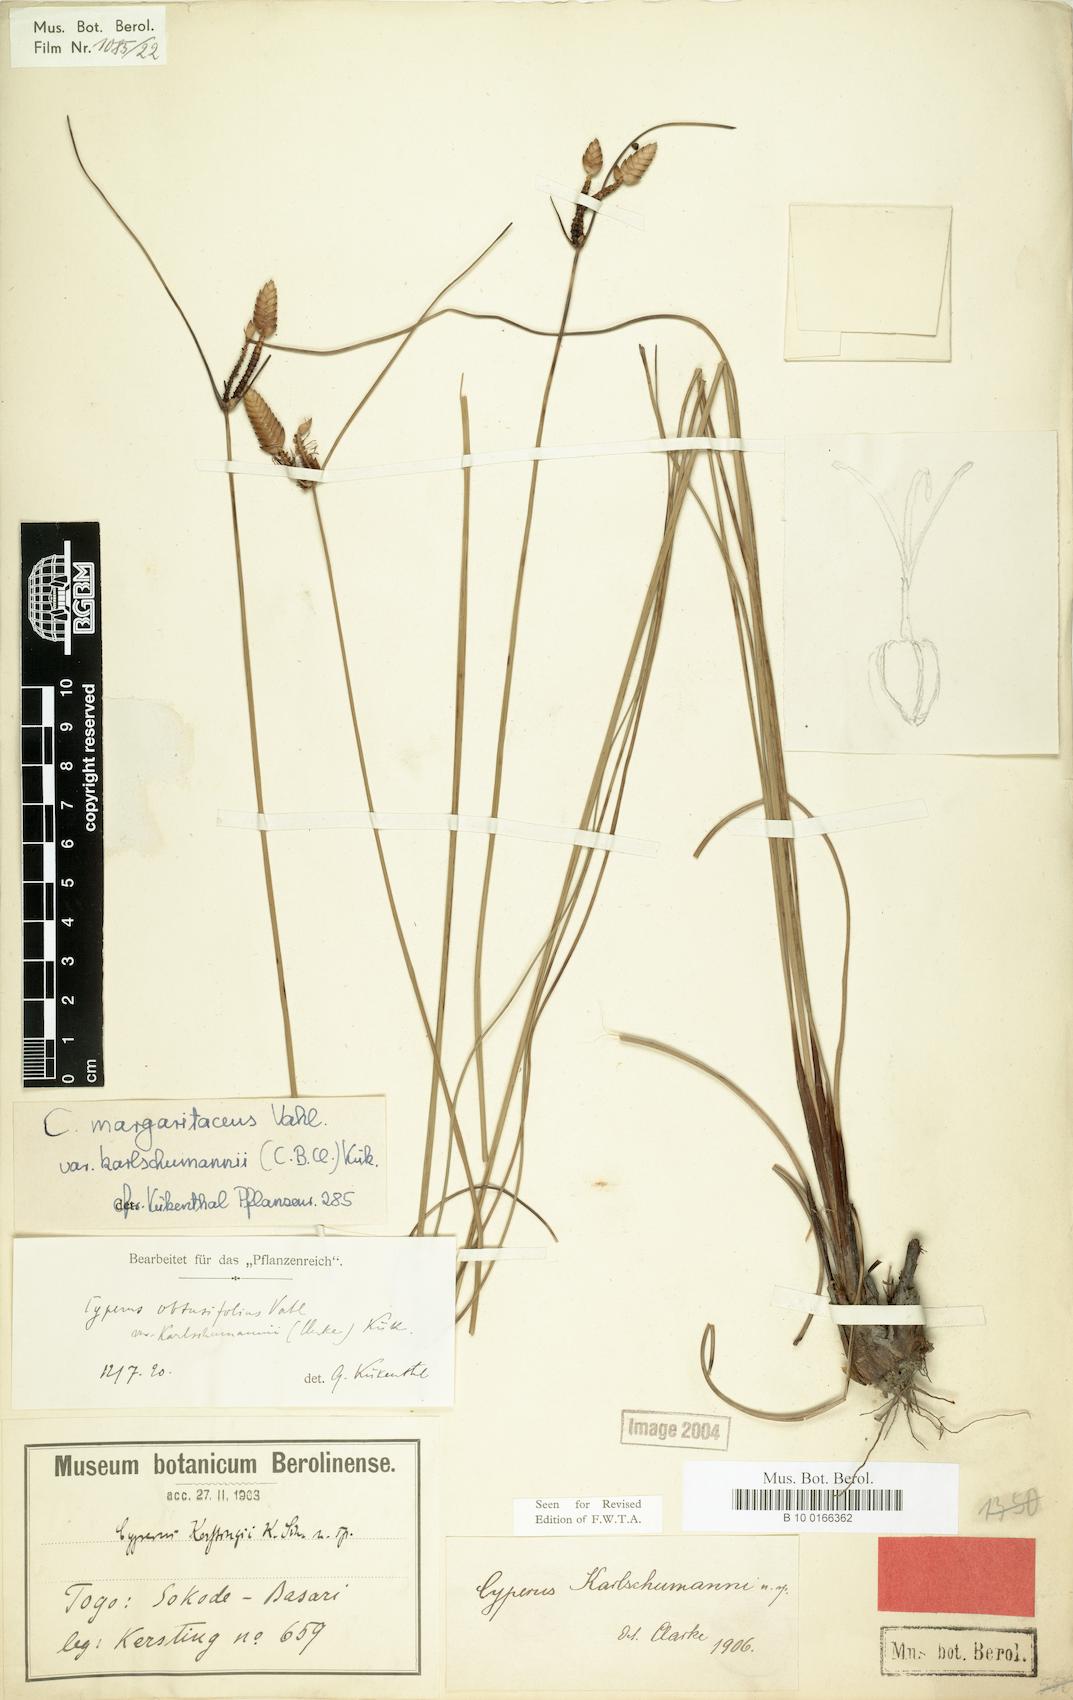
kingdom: Plantae
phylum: Tracheophyta
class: Liliopsida
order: Poales
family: Cyperaceae
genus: Cyperus
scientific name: Cyperus karlschumannii
